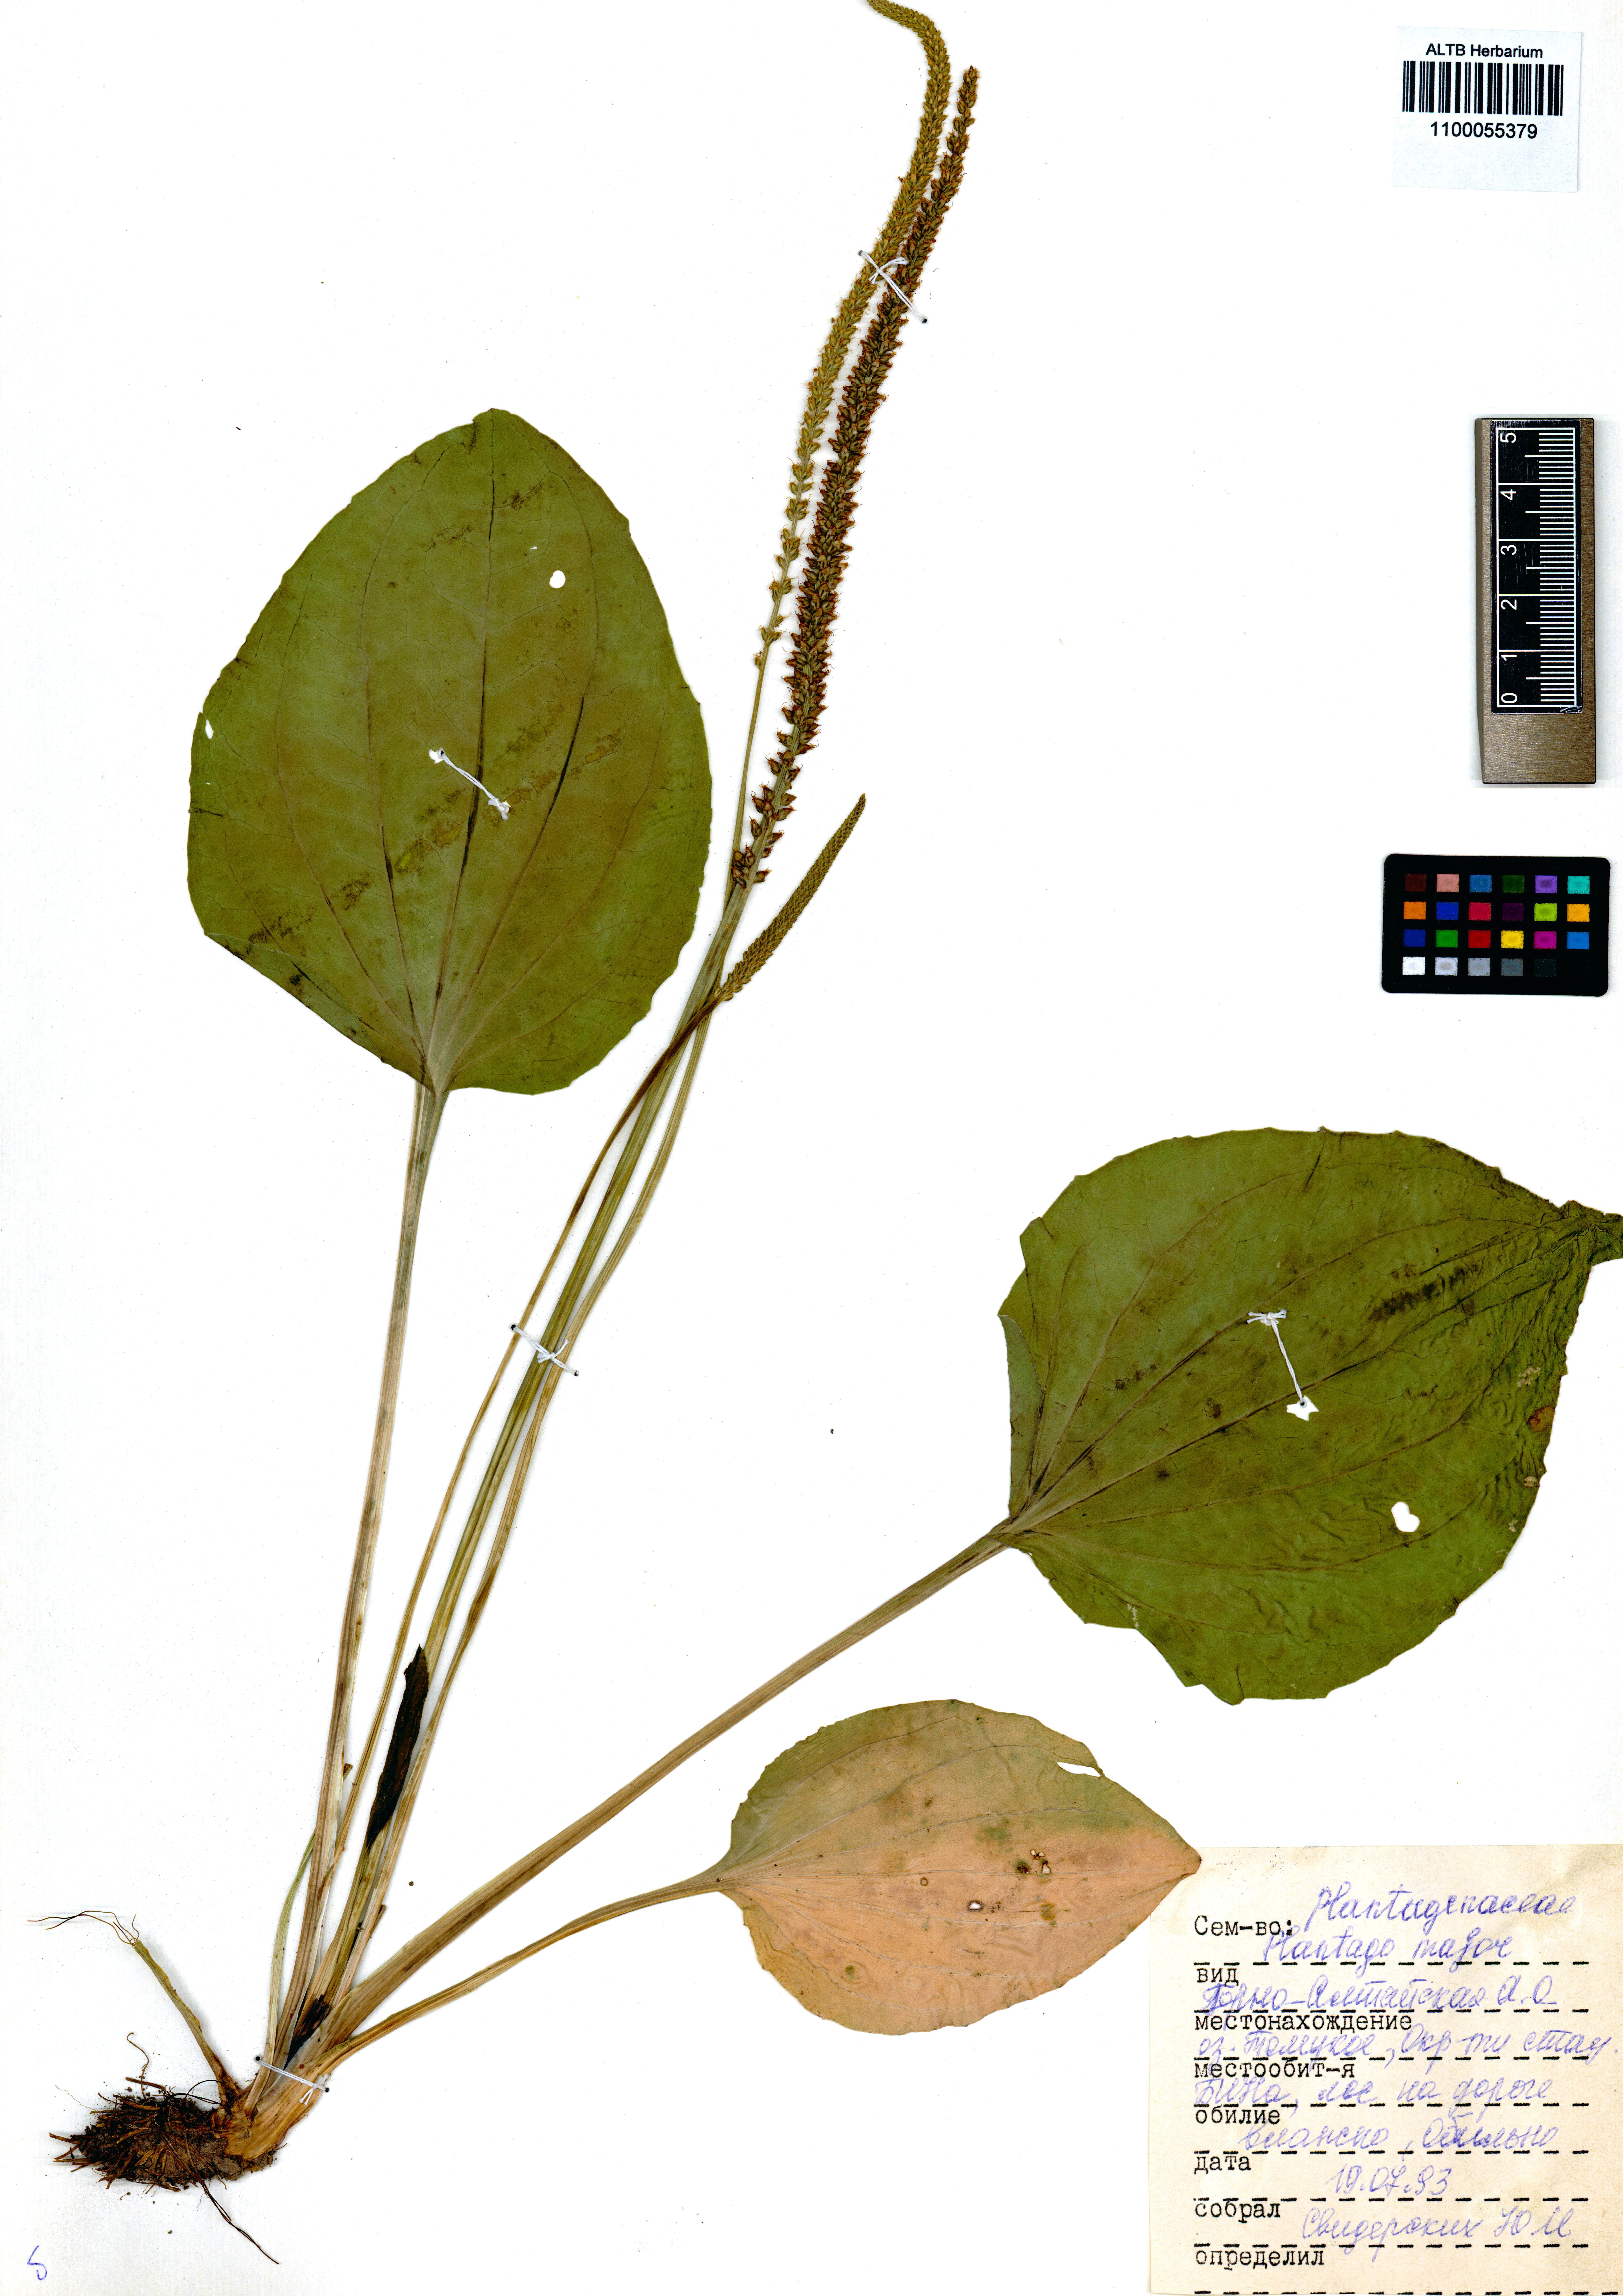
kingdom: Plantae
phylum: Tracheophyta
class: Magnoliopsida
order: Lamiales
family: Plantaginaceae
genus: Plantago
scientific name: Plantago major
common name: Common plantain
